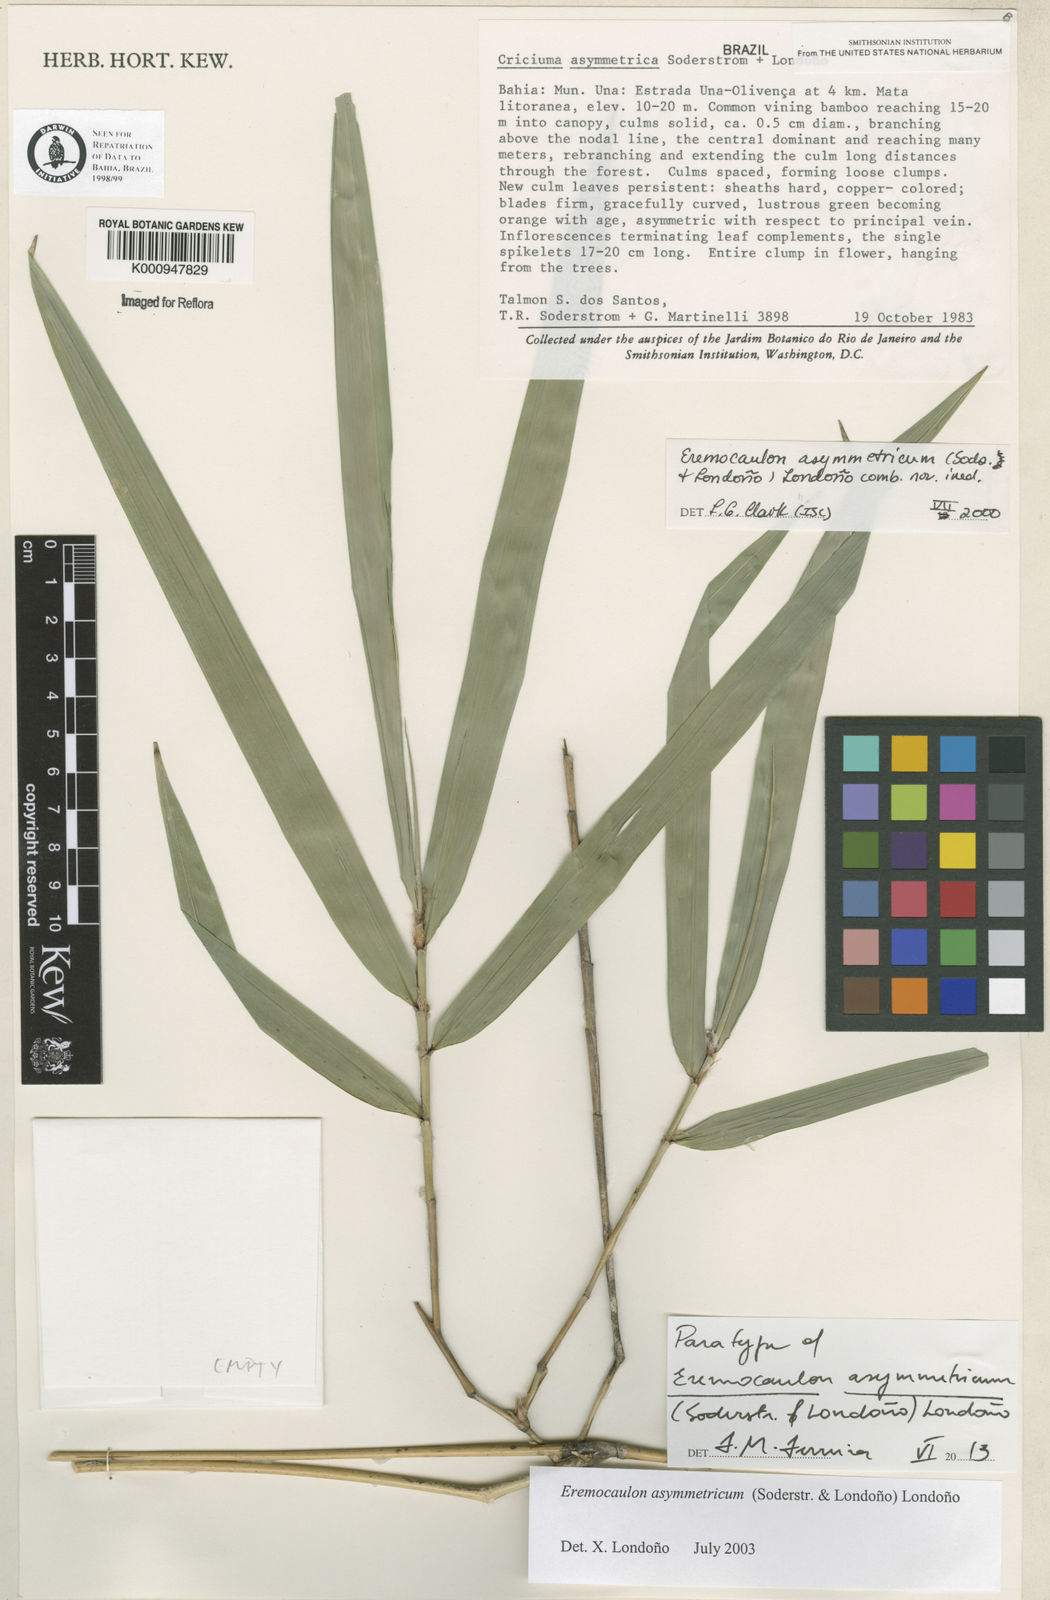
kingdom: Plantae
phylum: Tracheophyta
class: Liliopsida
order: Poales
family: Poaceae
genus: Eremocaulon
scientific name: Eremocaulon
